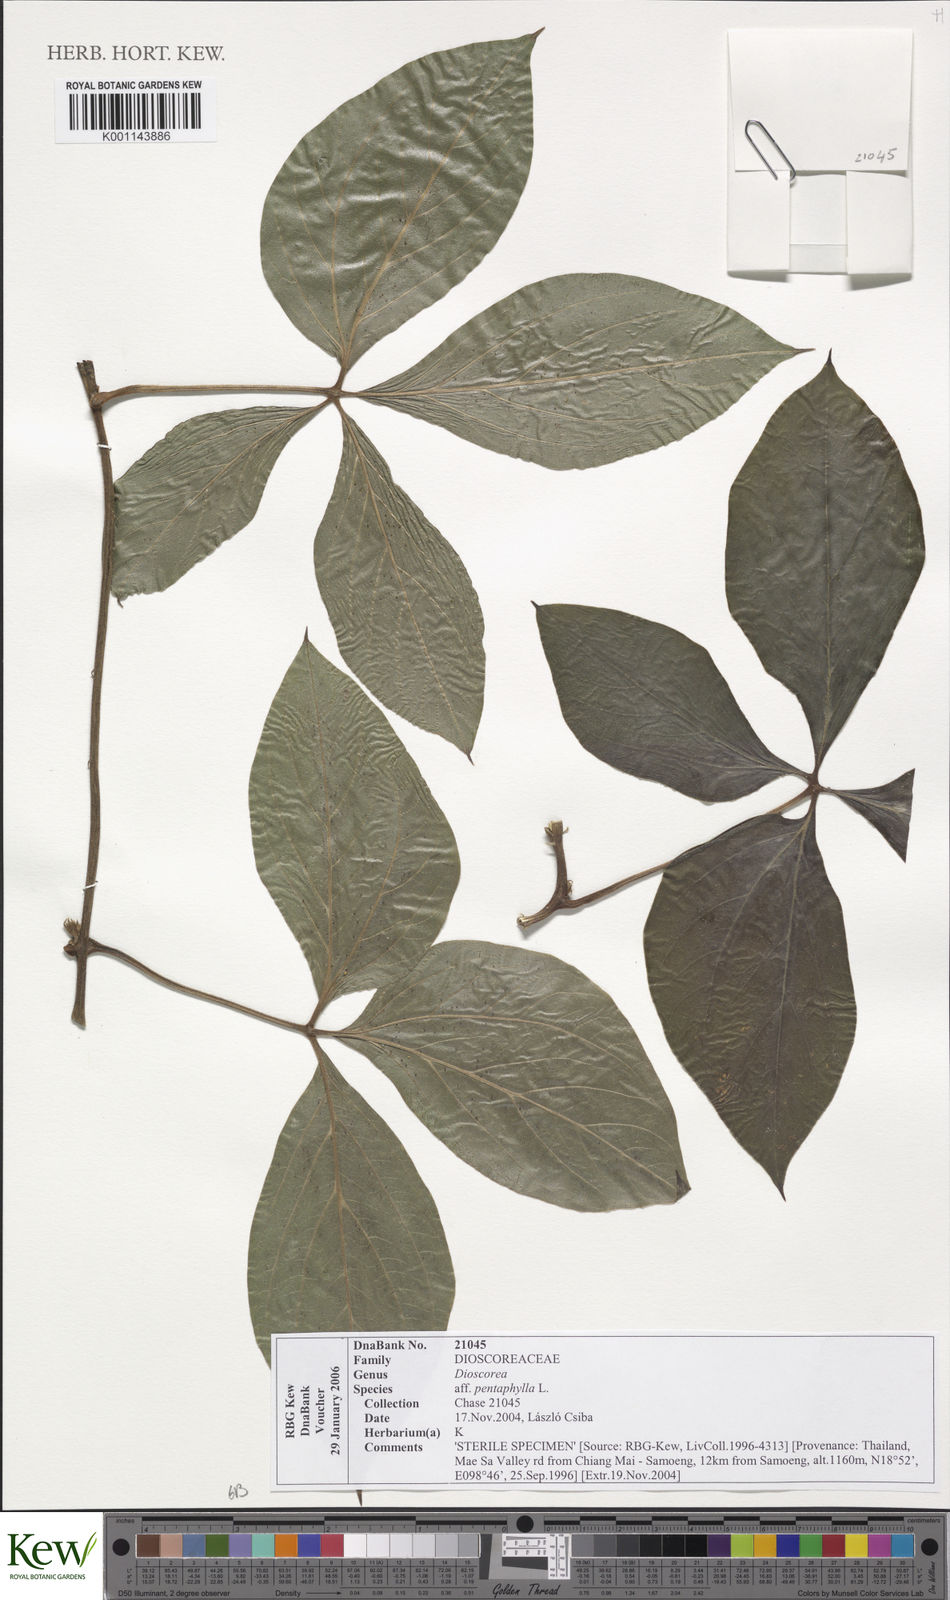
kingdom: Plantae
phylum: Tracheophyta
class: Liliopsida
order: Dioscoreales
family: Dioscoreaceae
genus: Dioscorea
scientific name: Dioscorea pentaphylla
